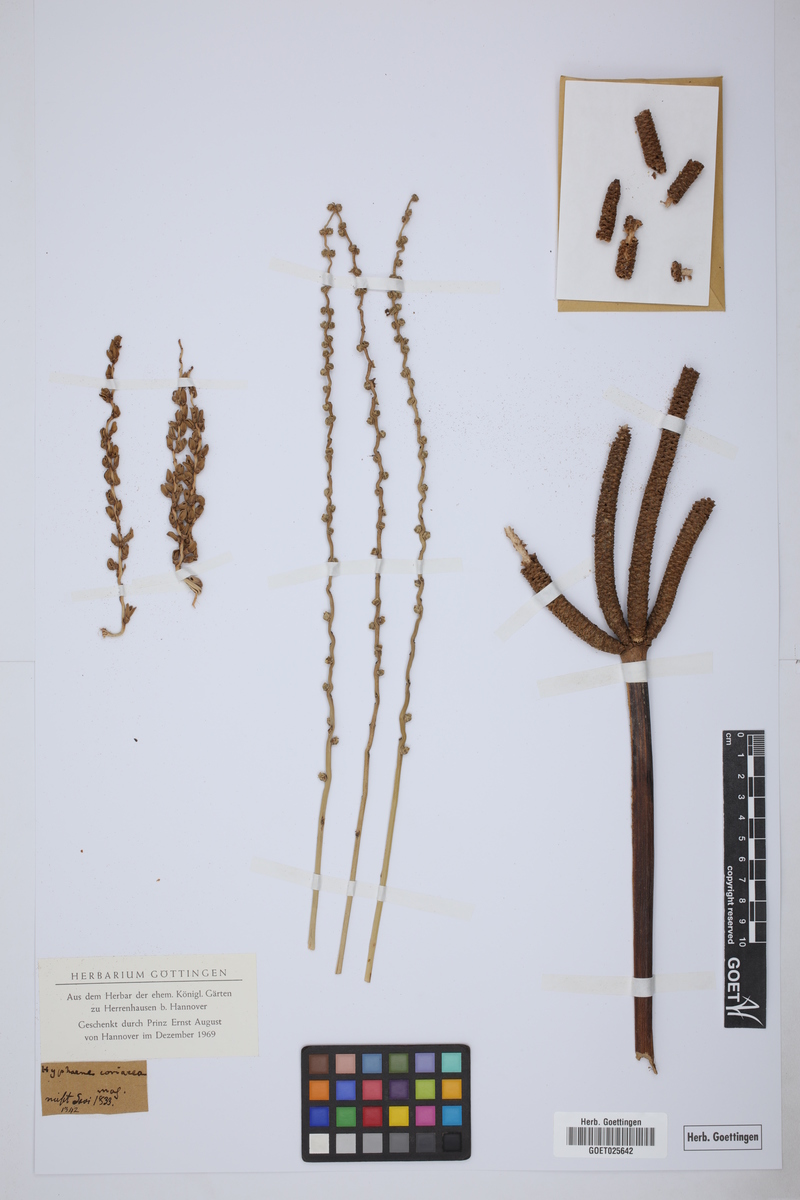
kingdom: Plantae
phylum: Tracheophyta
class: Liliopsida
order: Arecales
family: Arecaceae
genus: Hyphaene
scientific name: Hyphaene coriacea
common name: Ilala palm
